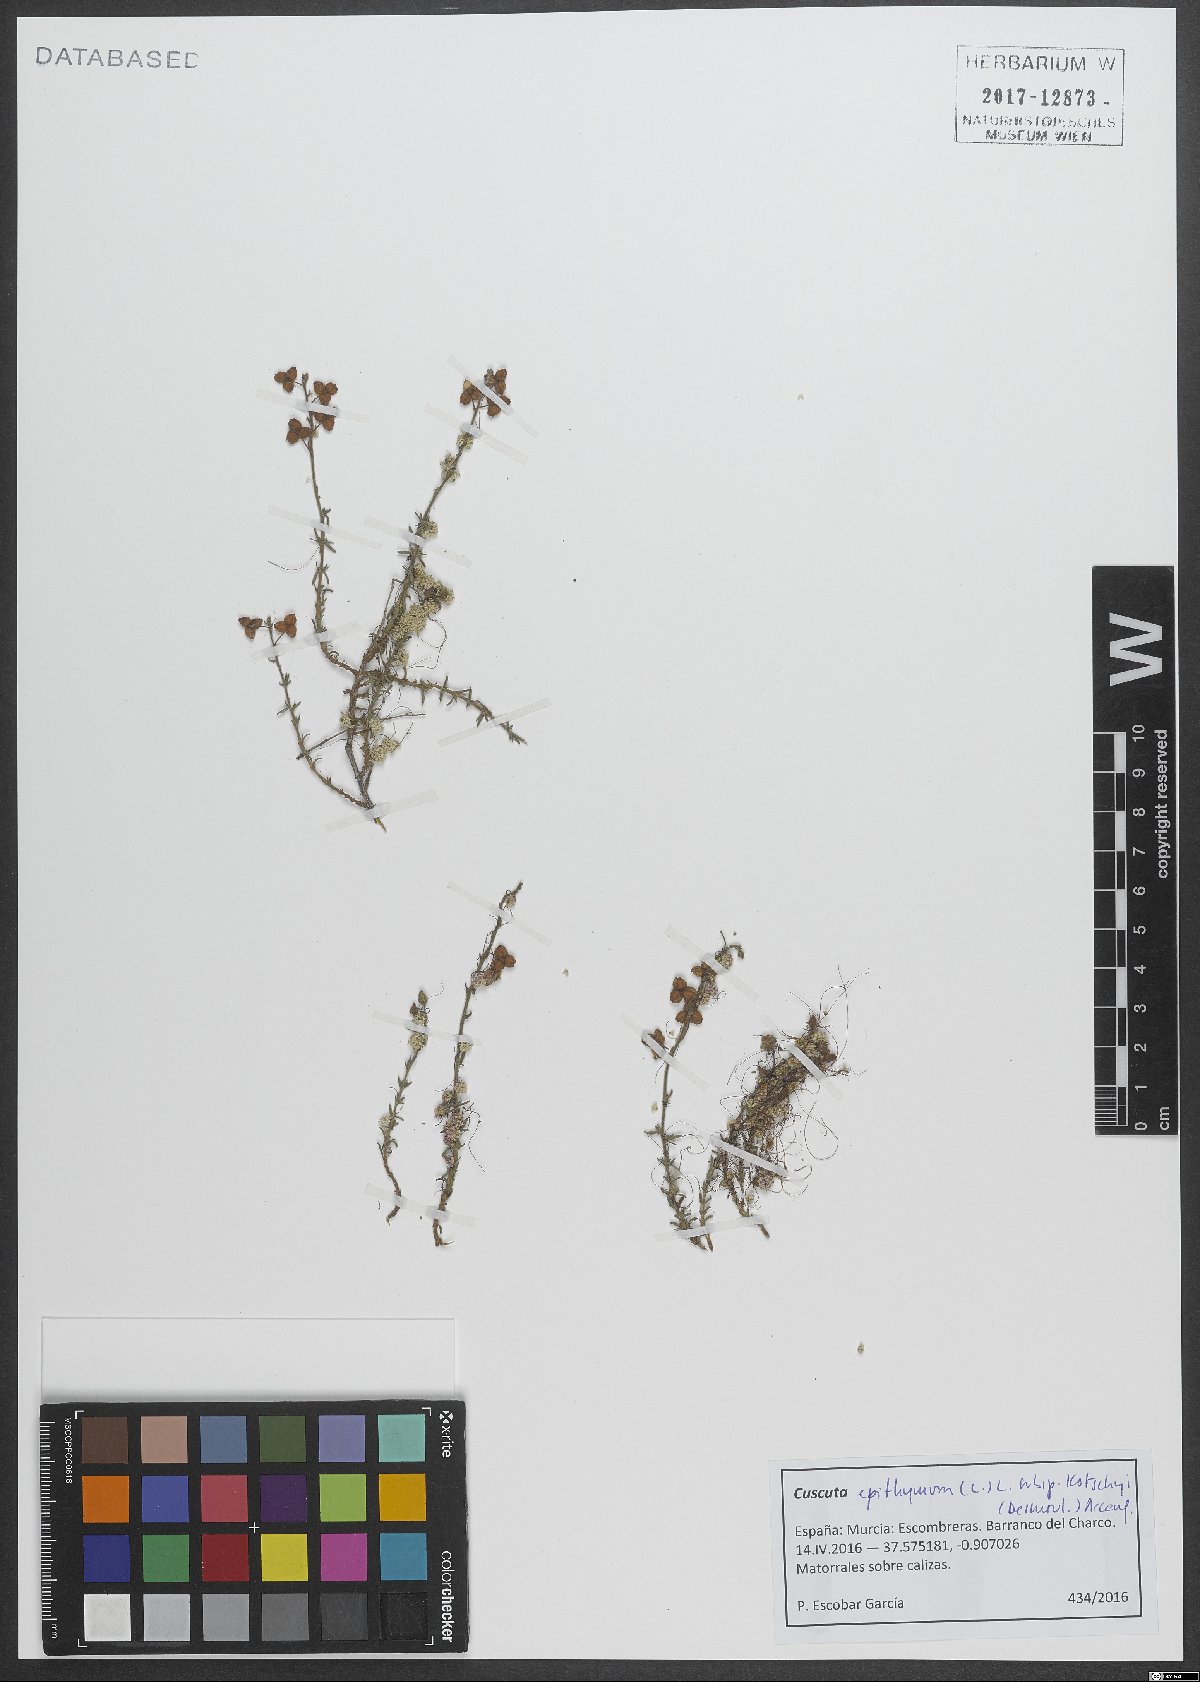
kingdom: Plantae
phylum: Tracheophyta
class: Magnoliopsida
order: Solanales
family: Convolvulaceae
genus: Cuscuta
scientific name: Cuscuta epithymum
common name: Clover dodder
